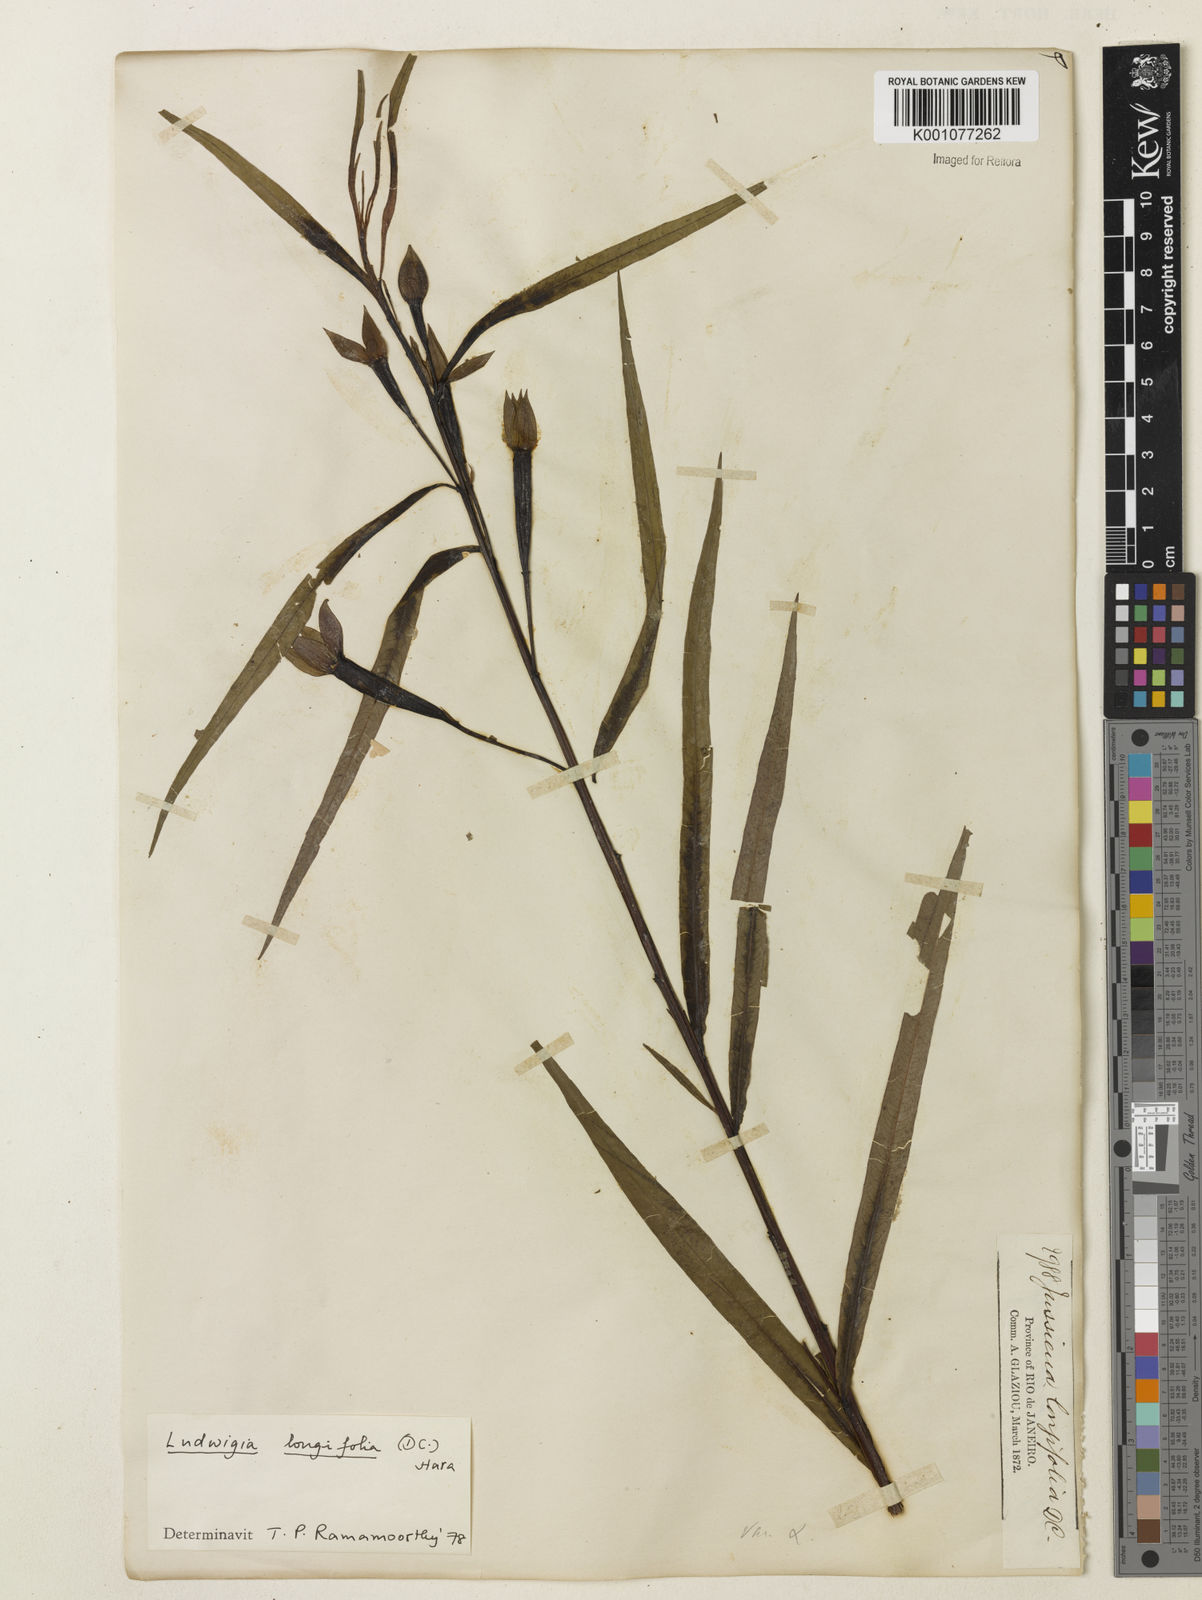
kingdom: Plantae
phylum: Tracheophyta
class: Magnoliopsida
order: Myrtales
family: Onagraceae
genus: Ludwigia
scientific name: Ludwigia longifolia
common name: Longleaf primrose-willow
